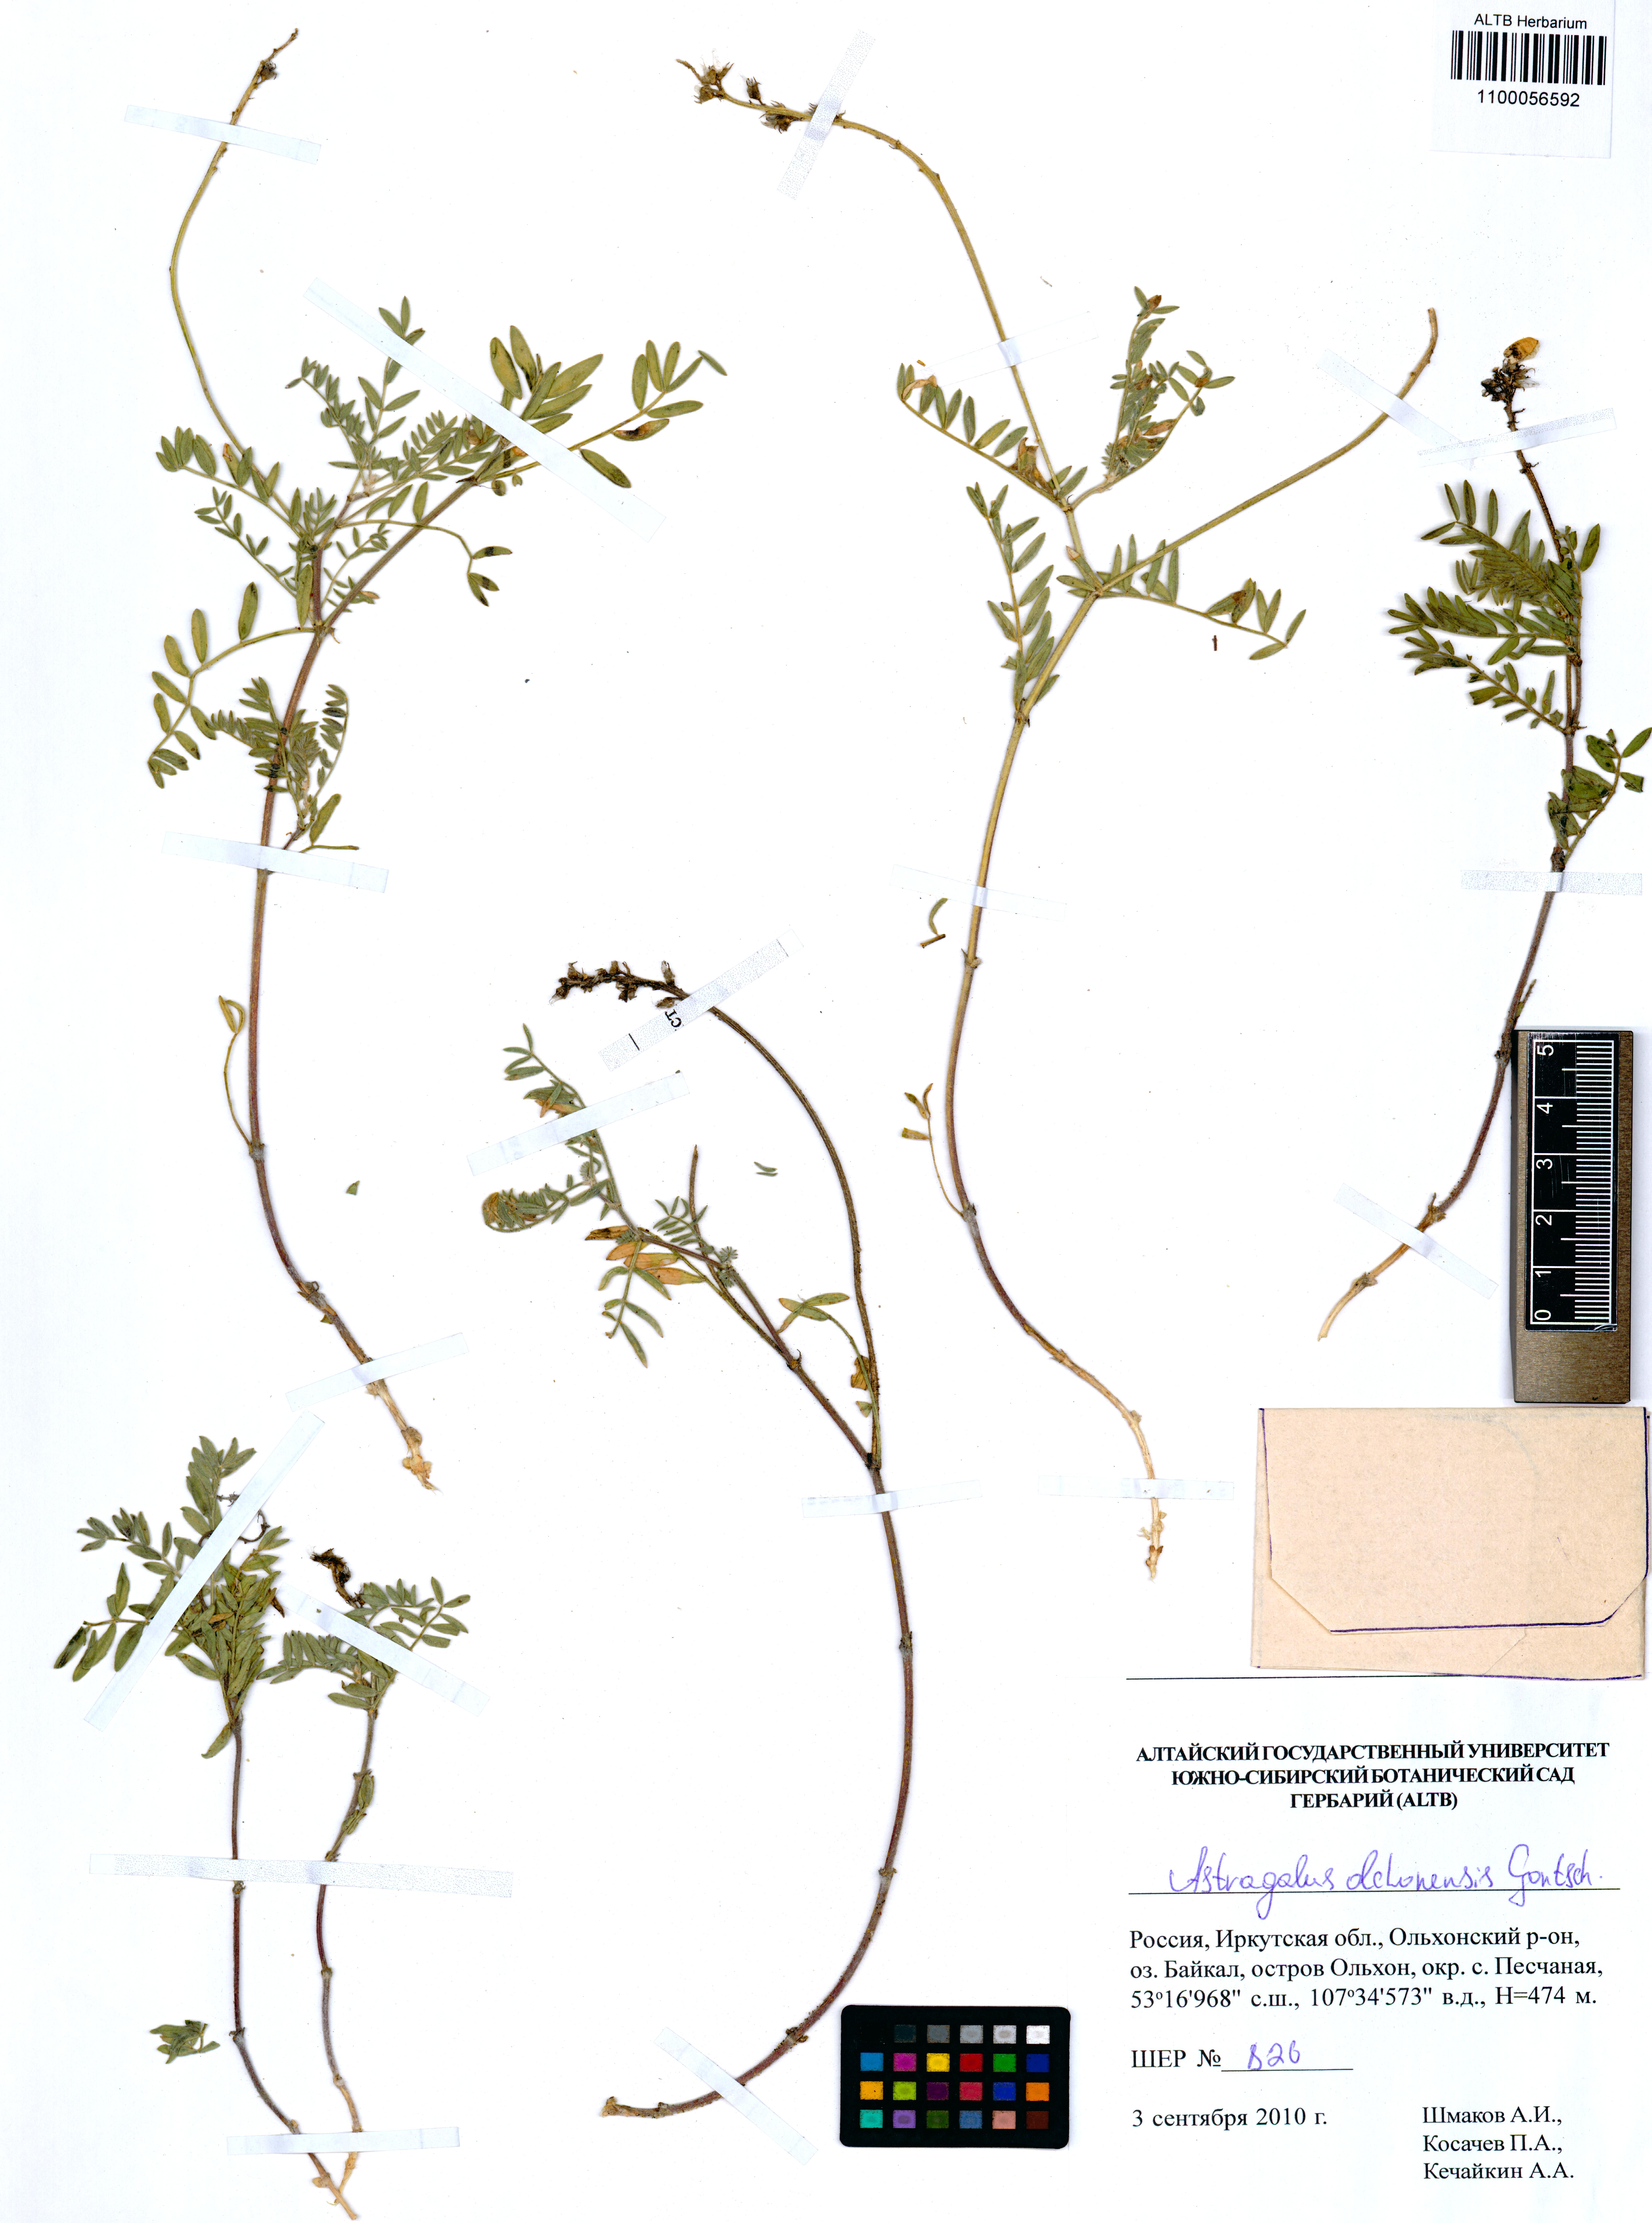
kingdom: Plantae
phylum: Tracheophyta
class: Magnoliopsida
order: Fabales
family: Fabaceae
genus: Astragalus
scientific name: Astragalus olchonensis
